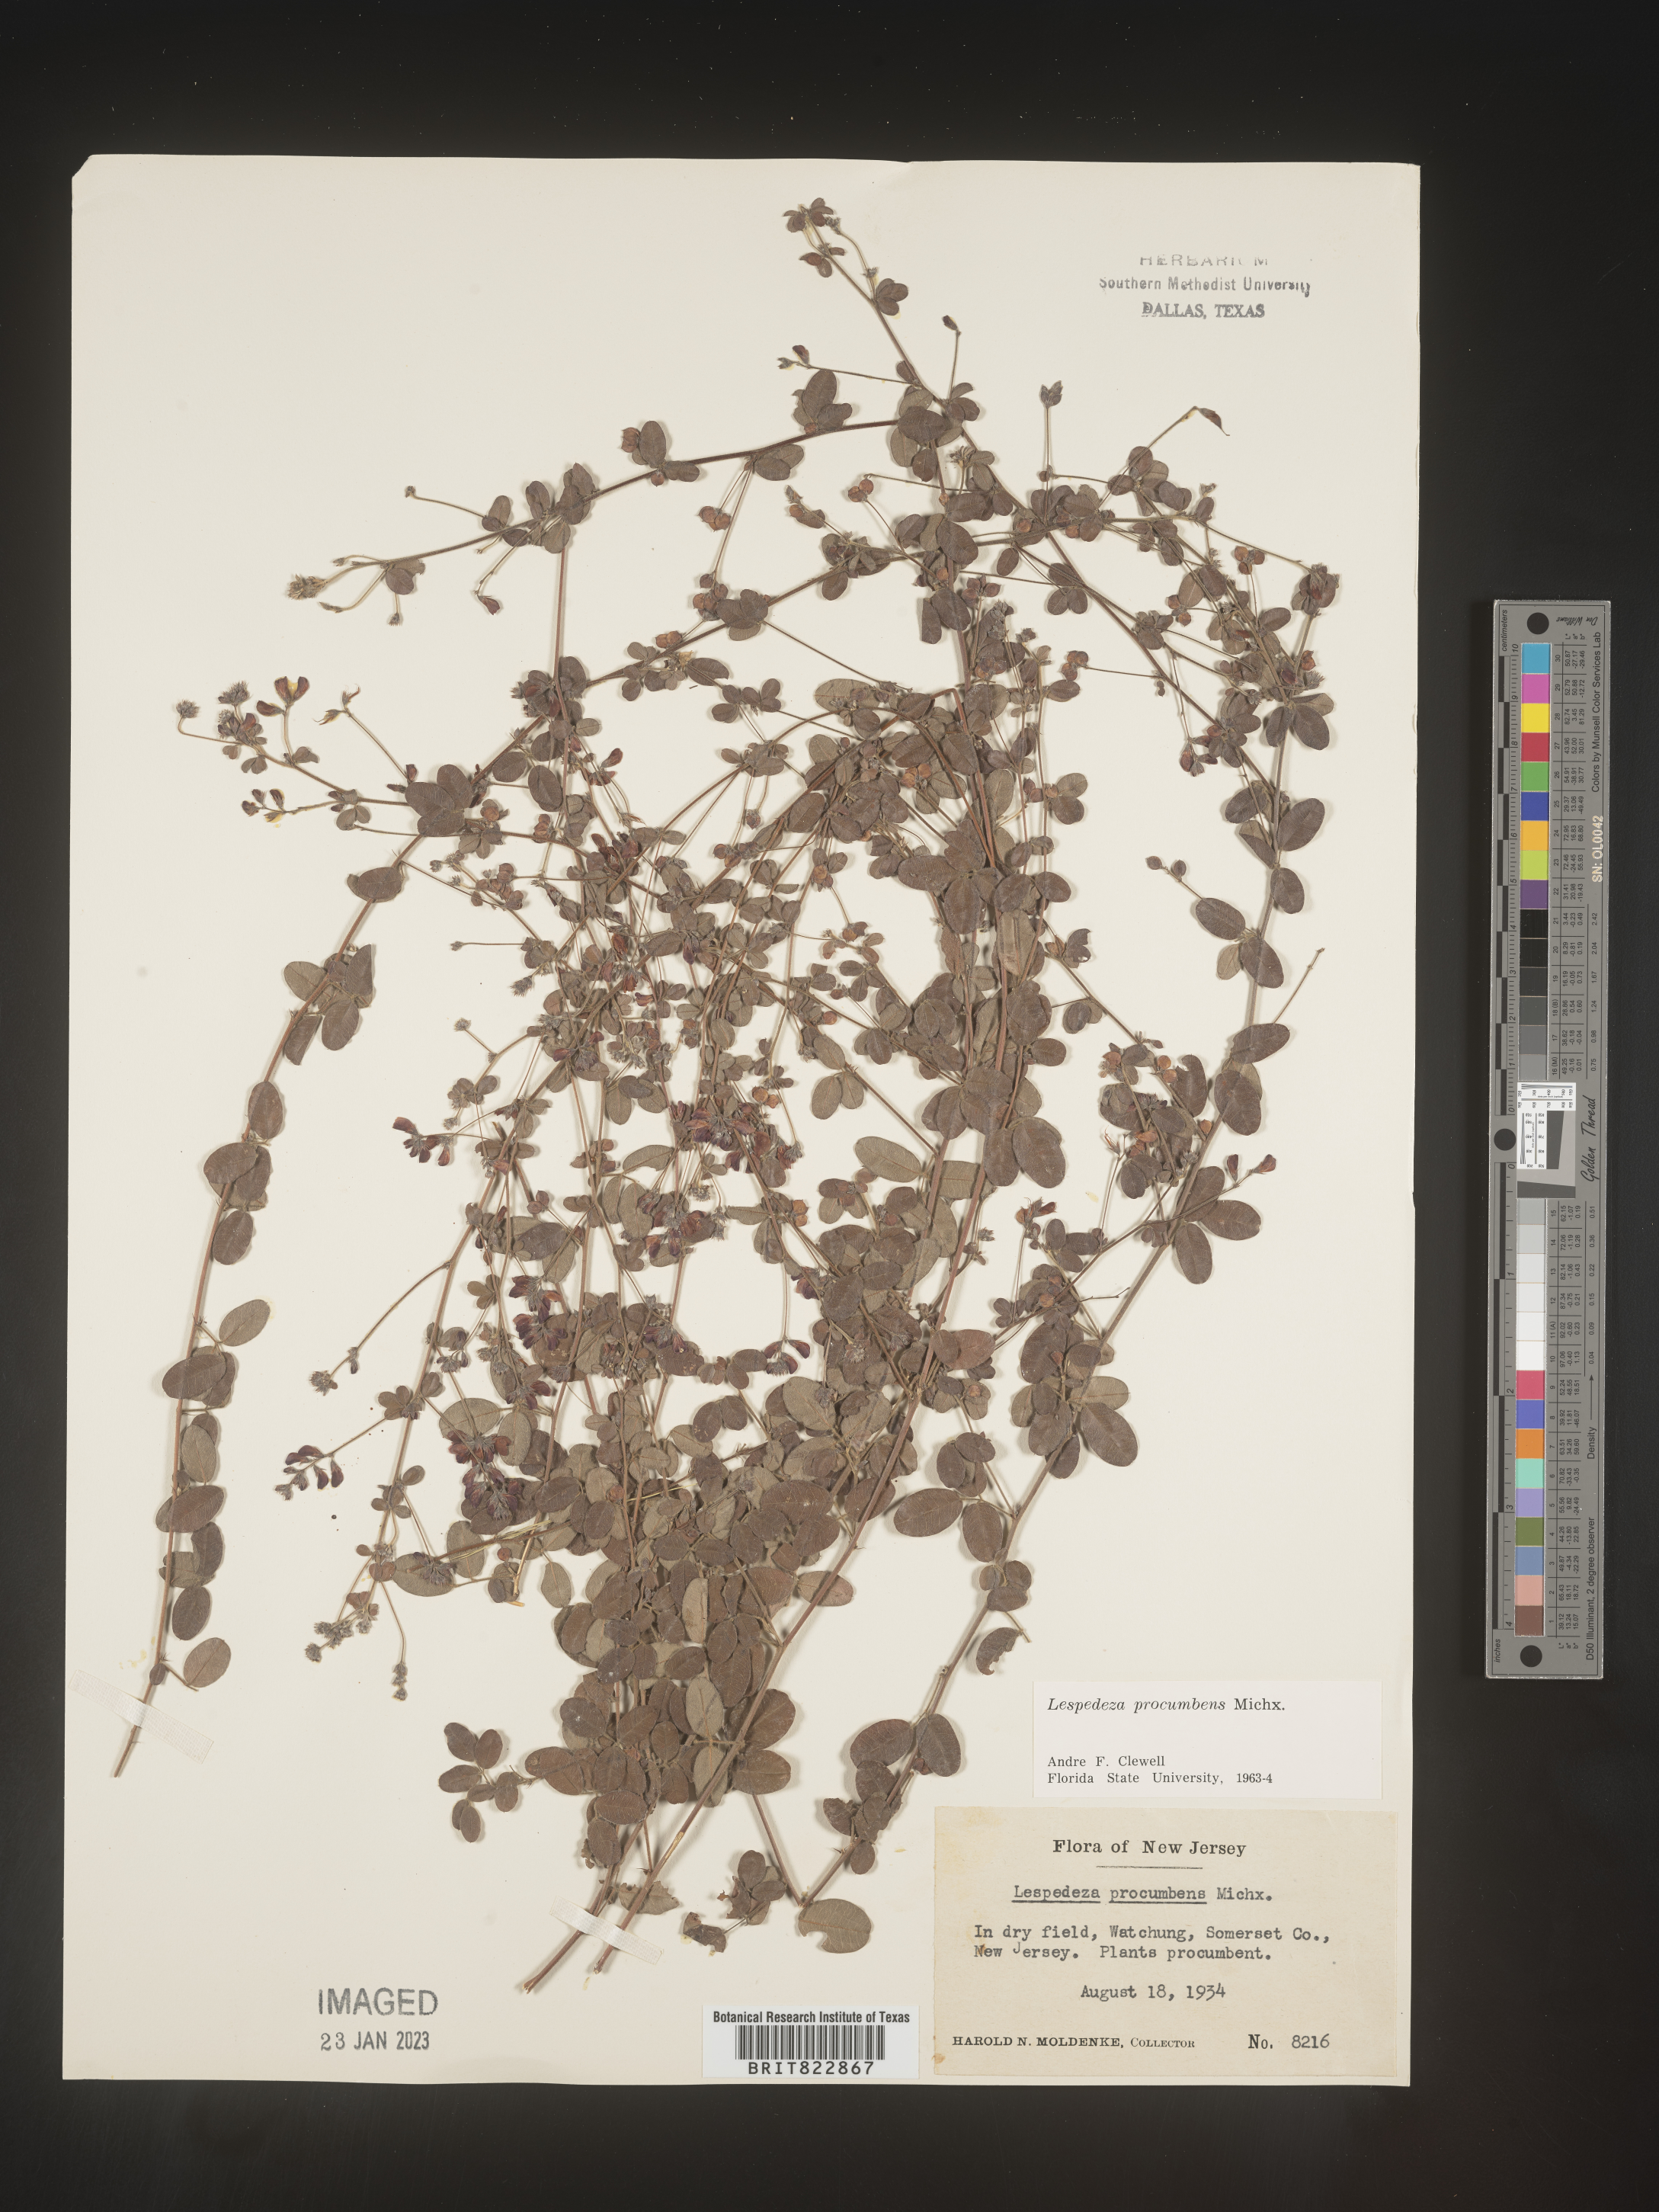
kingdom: Plantae
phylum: Tracheophyta
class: Magnoliopsida
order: Fabales
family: Fabaceae
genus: Lespedeza
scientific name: Lespedeza procumbens
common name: Downy trailing bush-clover
